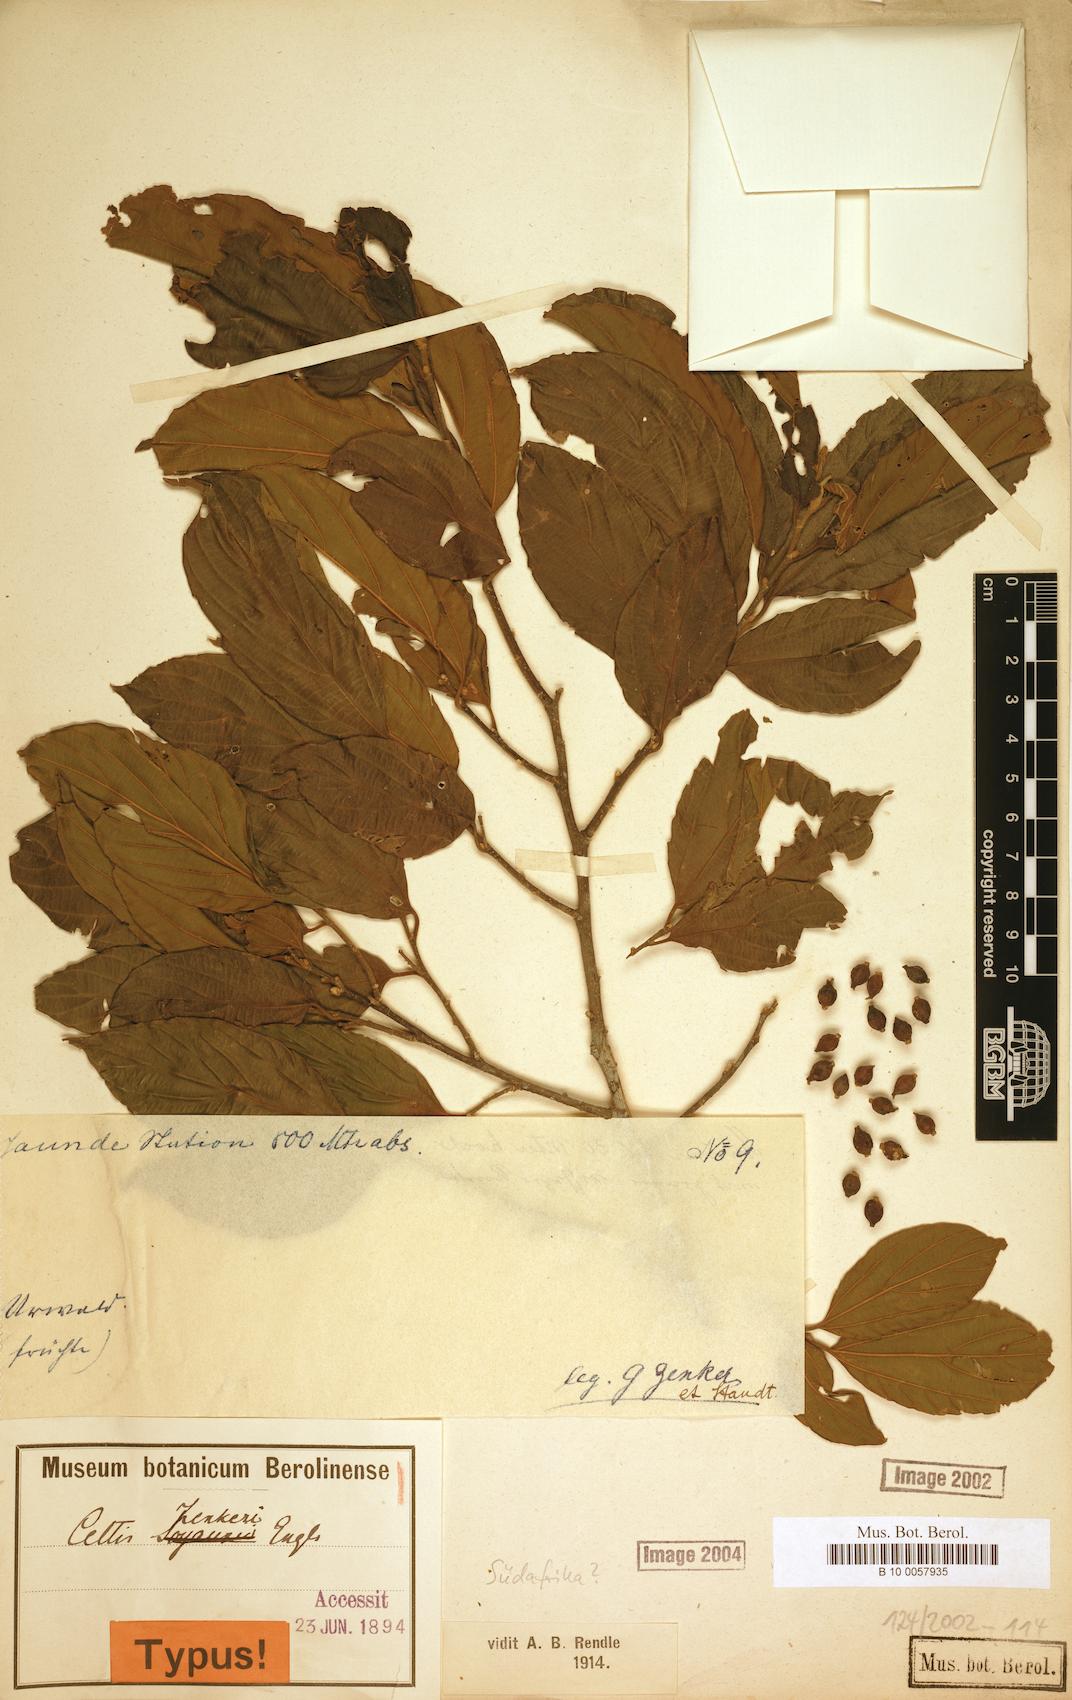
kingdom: Plantae
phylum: Tracheophyta
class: Magnoliopsida
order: Rosales
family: Cannabaceae
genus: Celtis
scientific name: Celtis zenkeri
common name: African celtis
